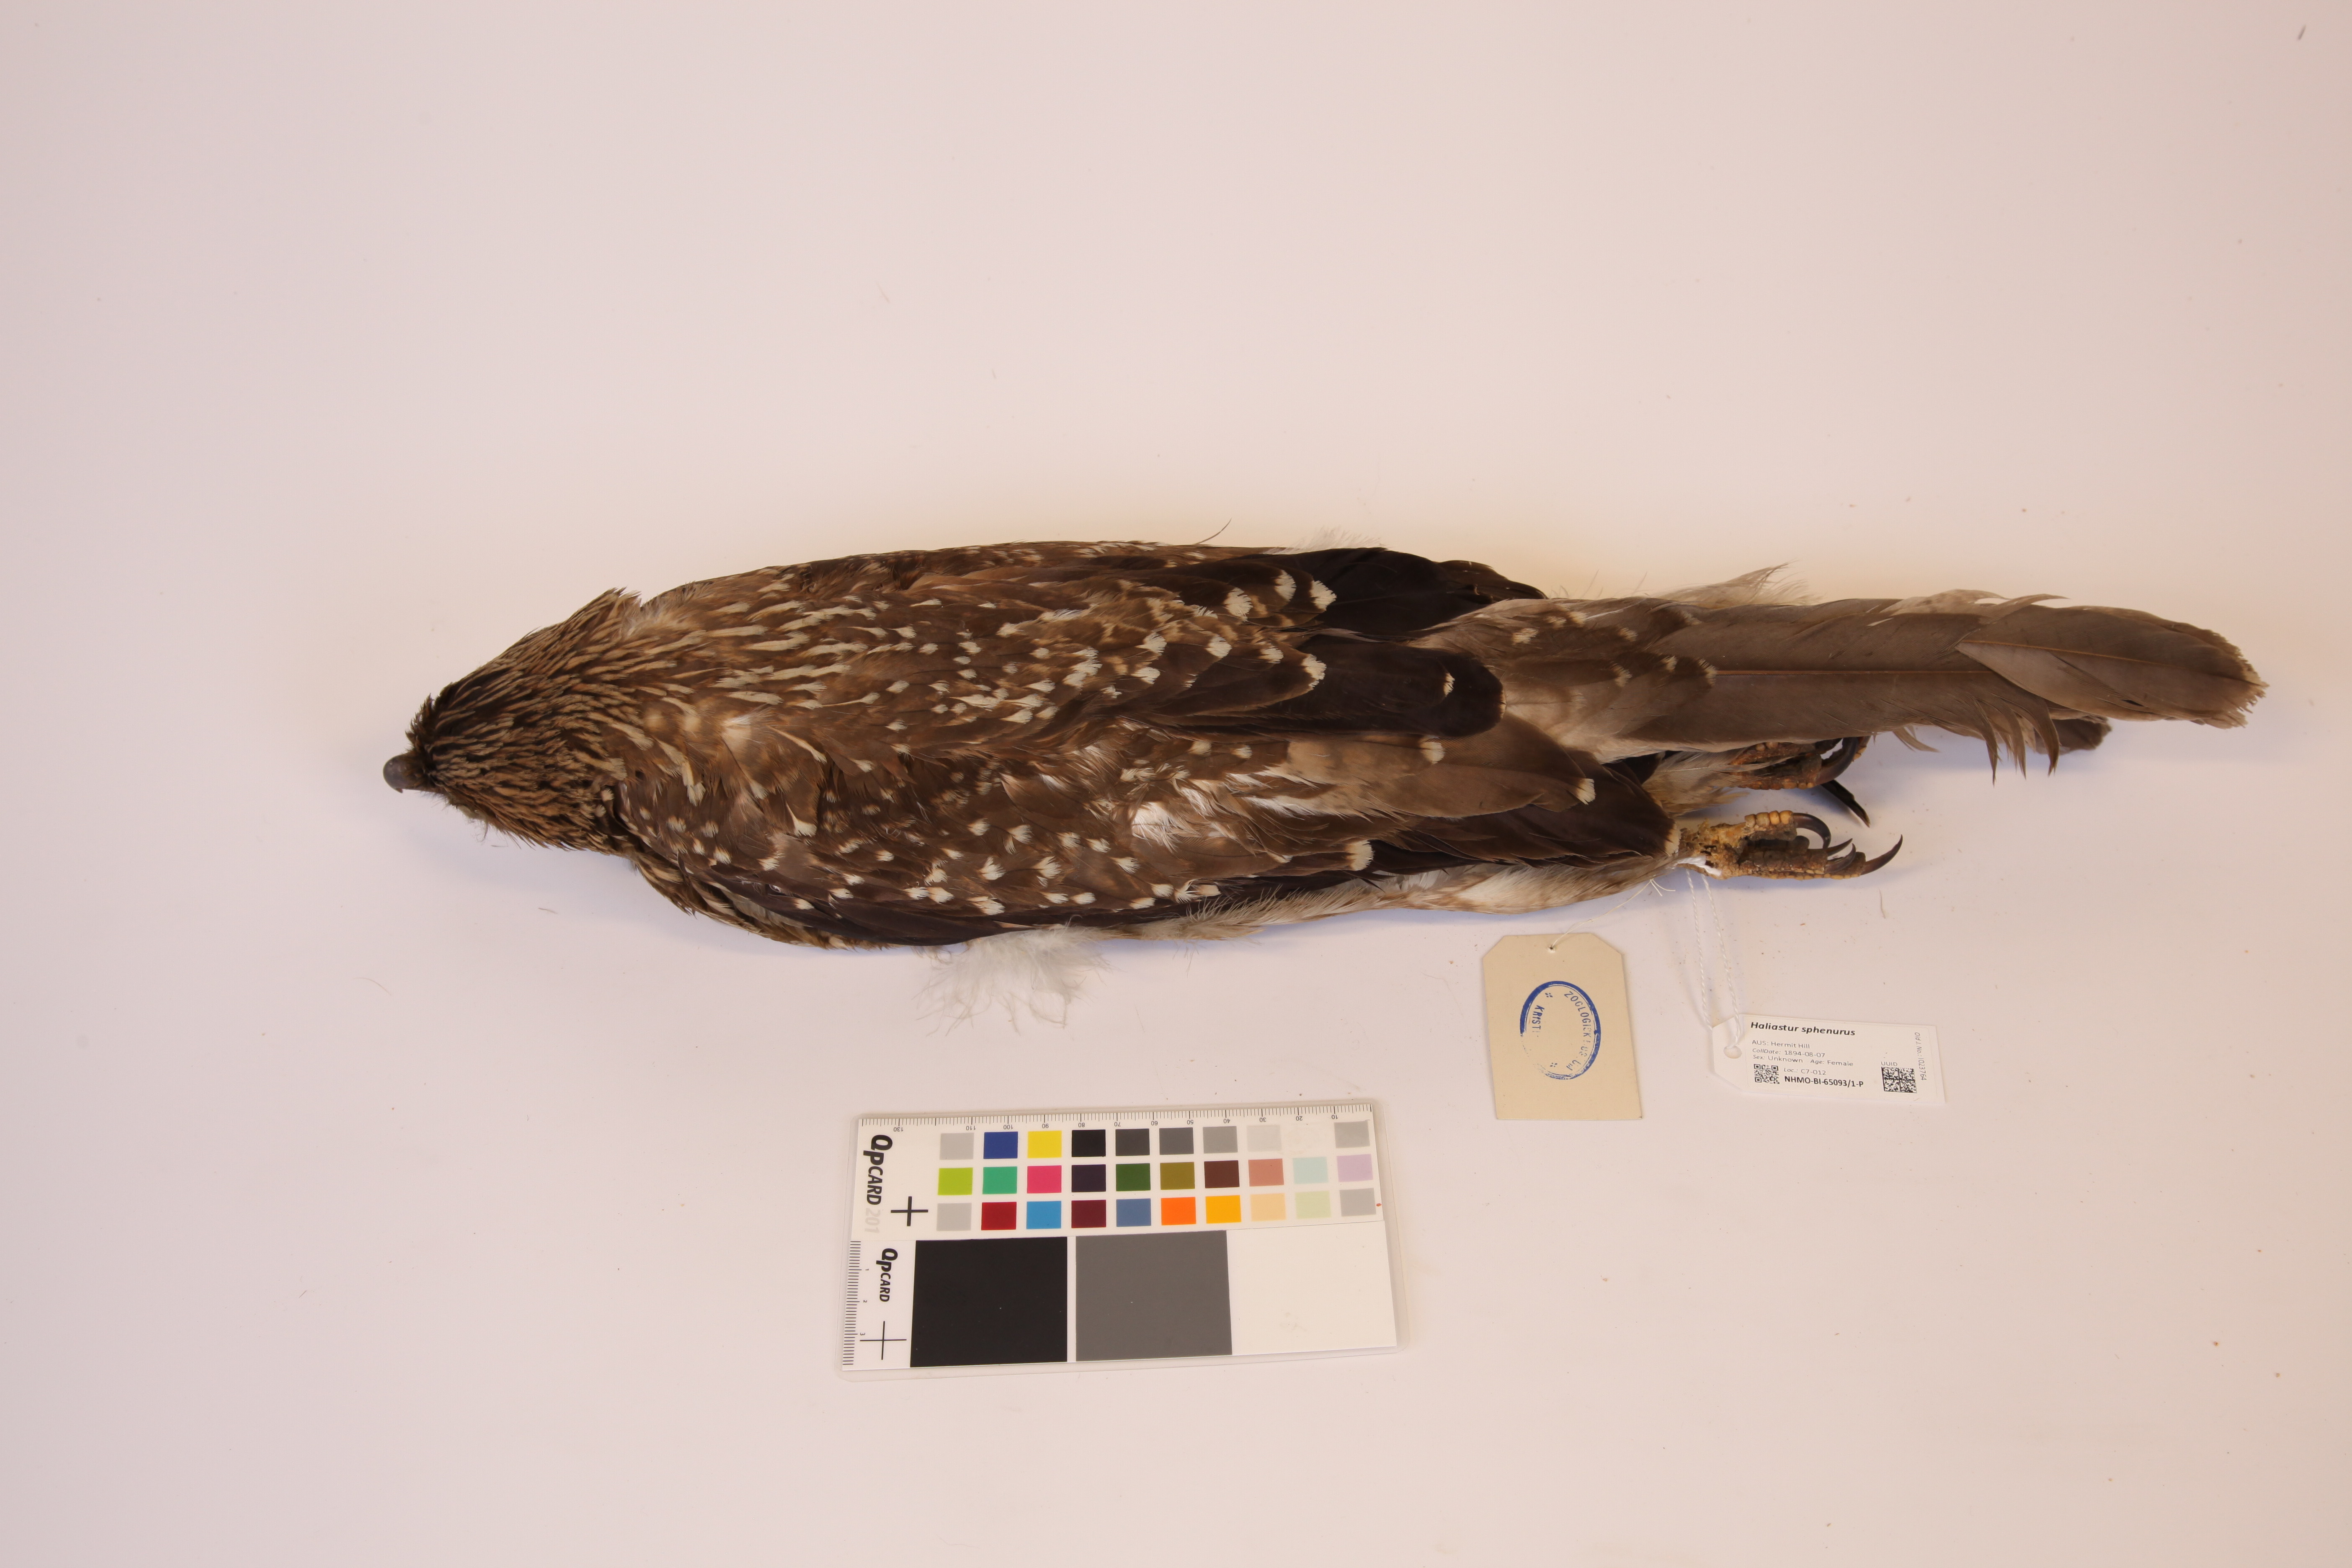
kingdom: Animalia
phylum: Chordata
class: Aves
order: Accipitriformes
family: Accipitridae
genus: Haliastur
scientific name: Haliastur sphenurus
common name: Whistling kite
